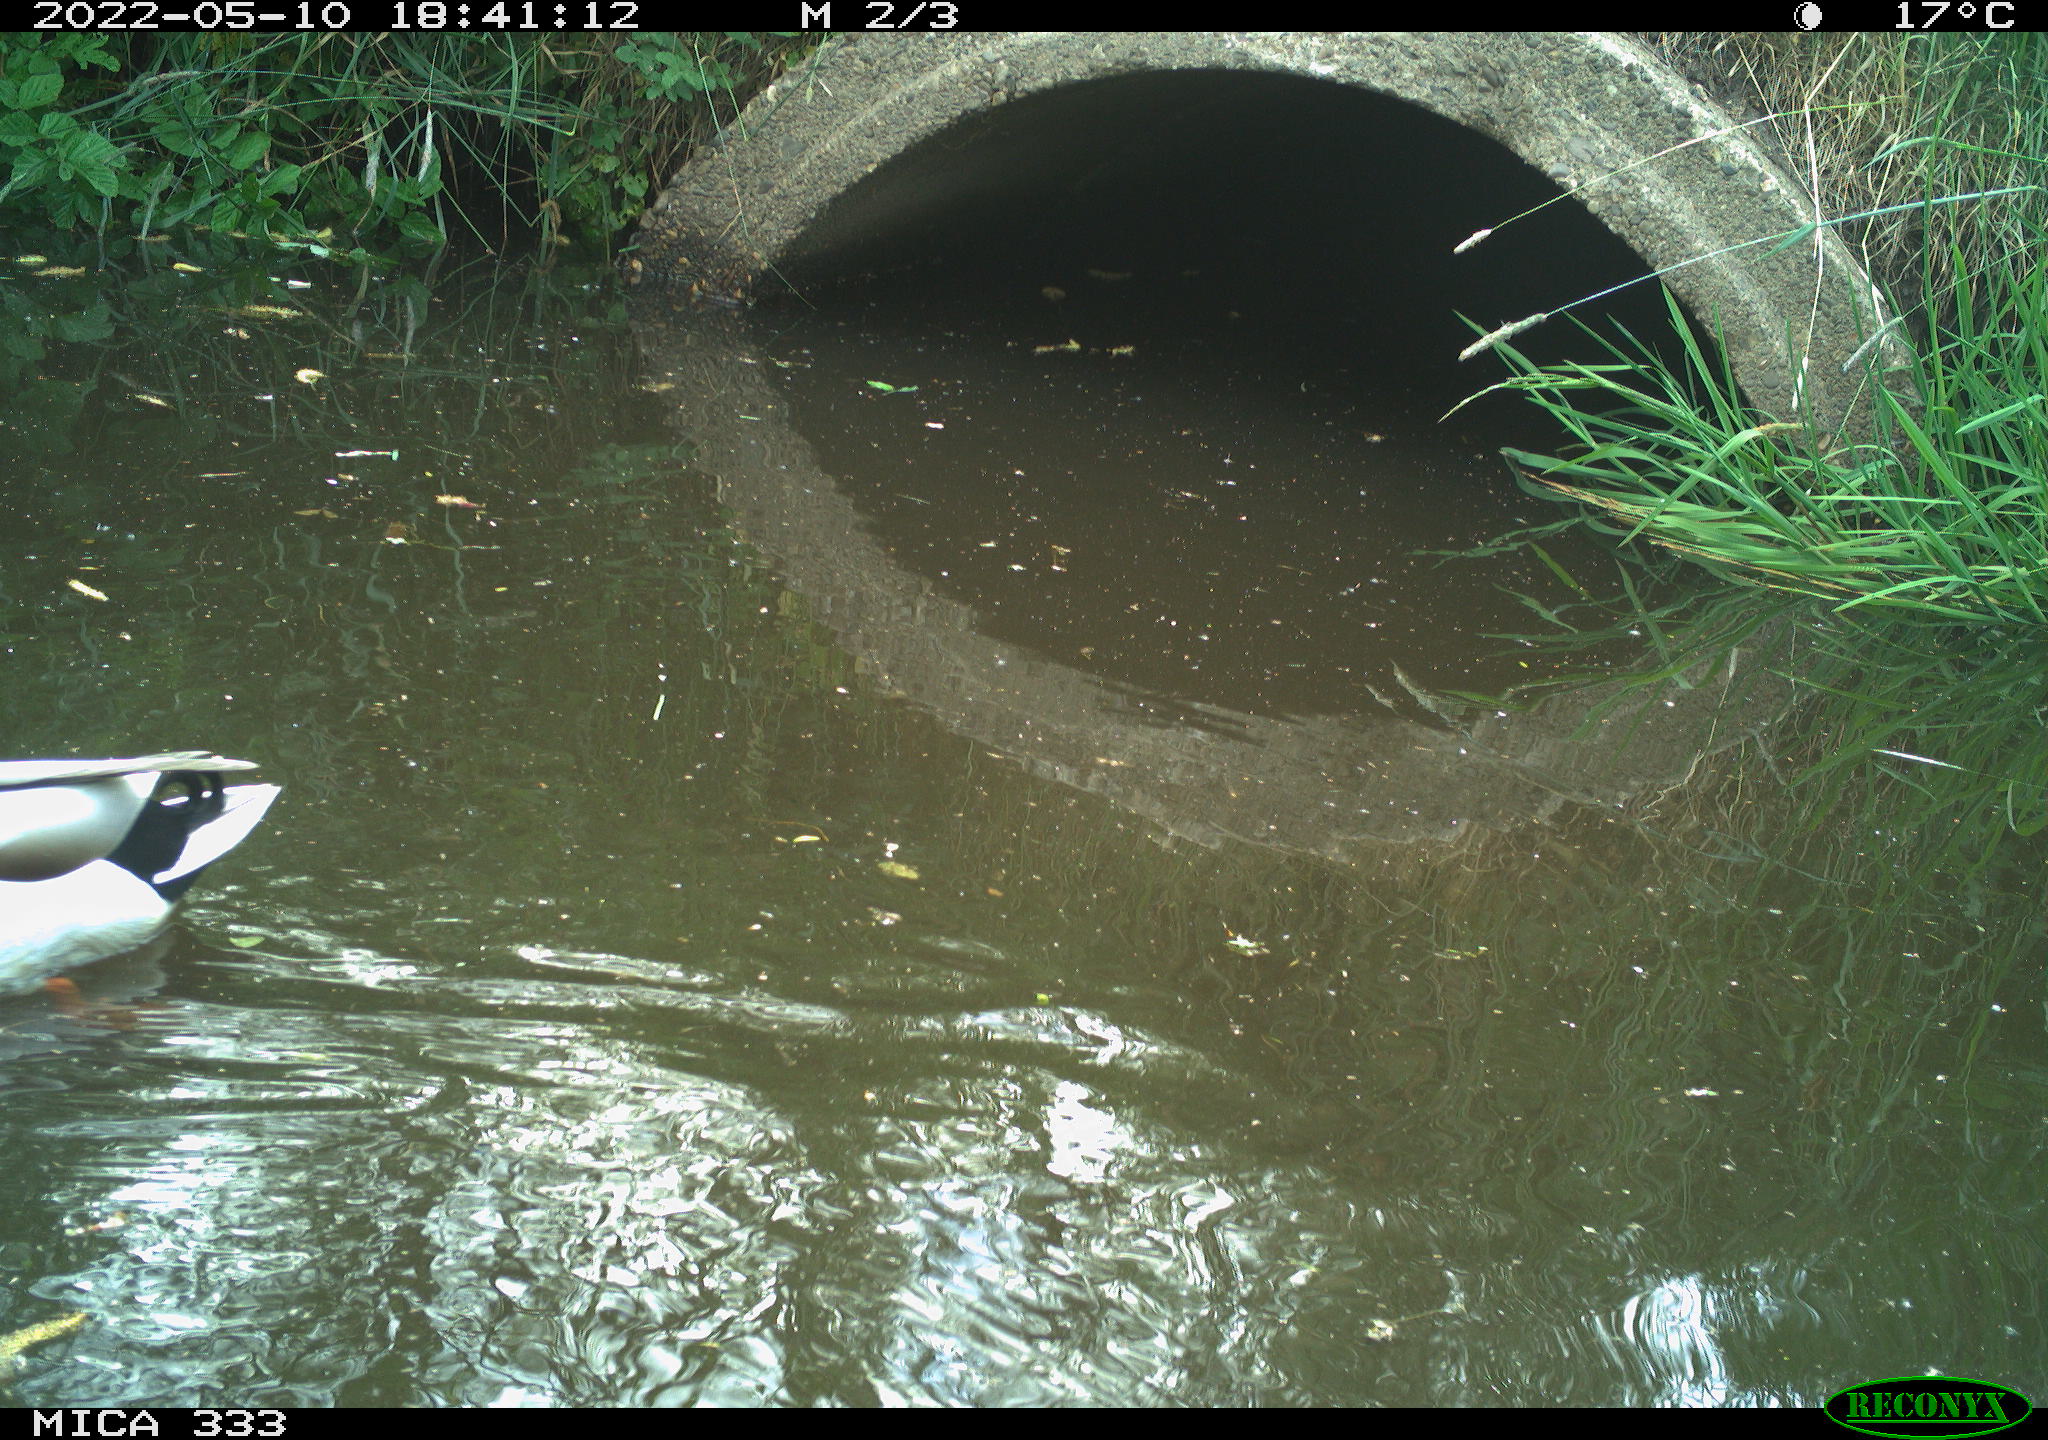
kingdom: Animalia
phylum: Chordata
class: Aves
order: Anseriformes
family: Anatidae
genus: Anas
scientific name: Anas platyrhynchos
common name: Mallard
